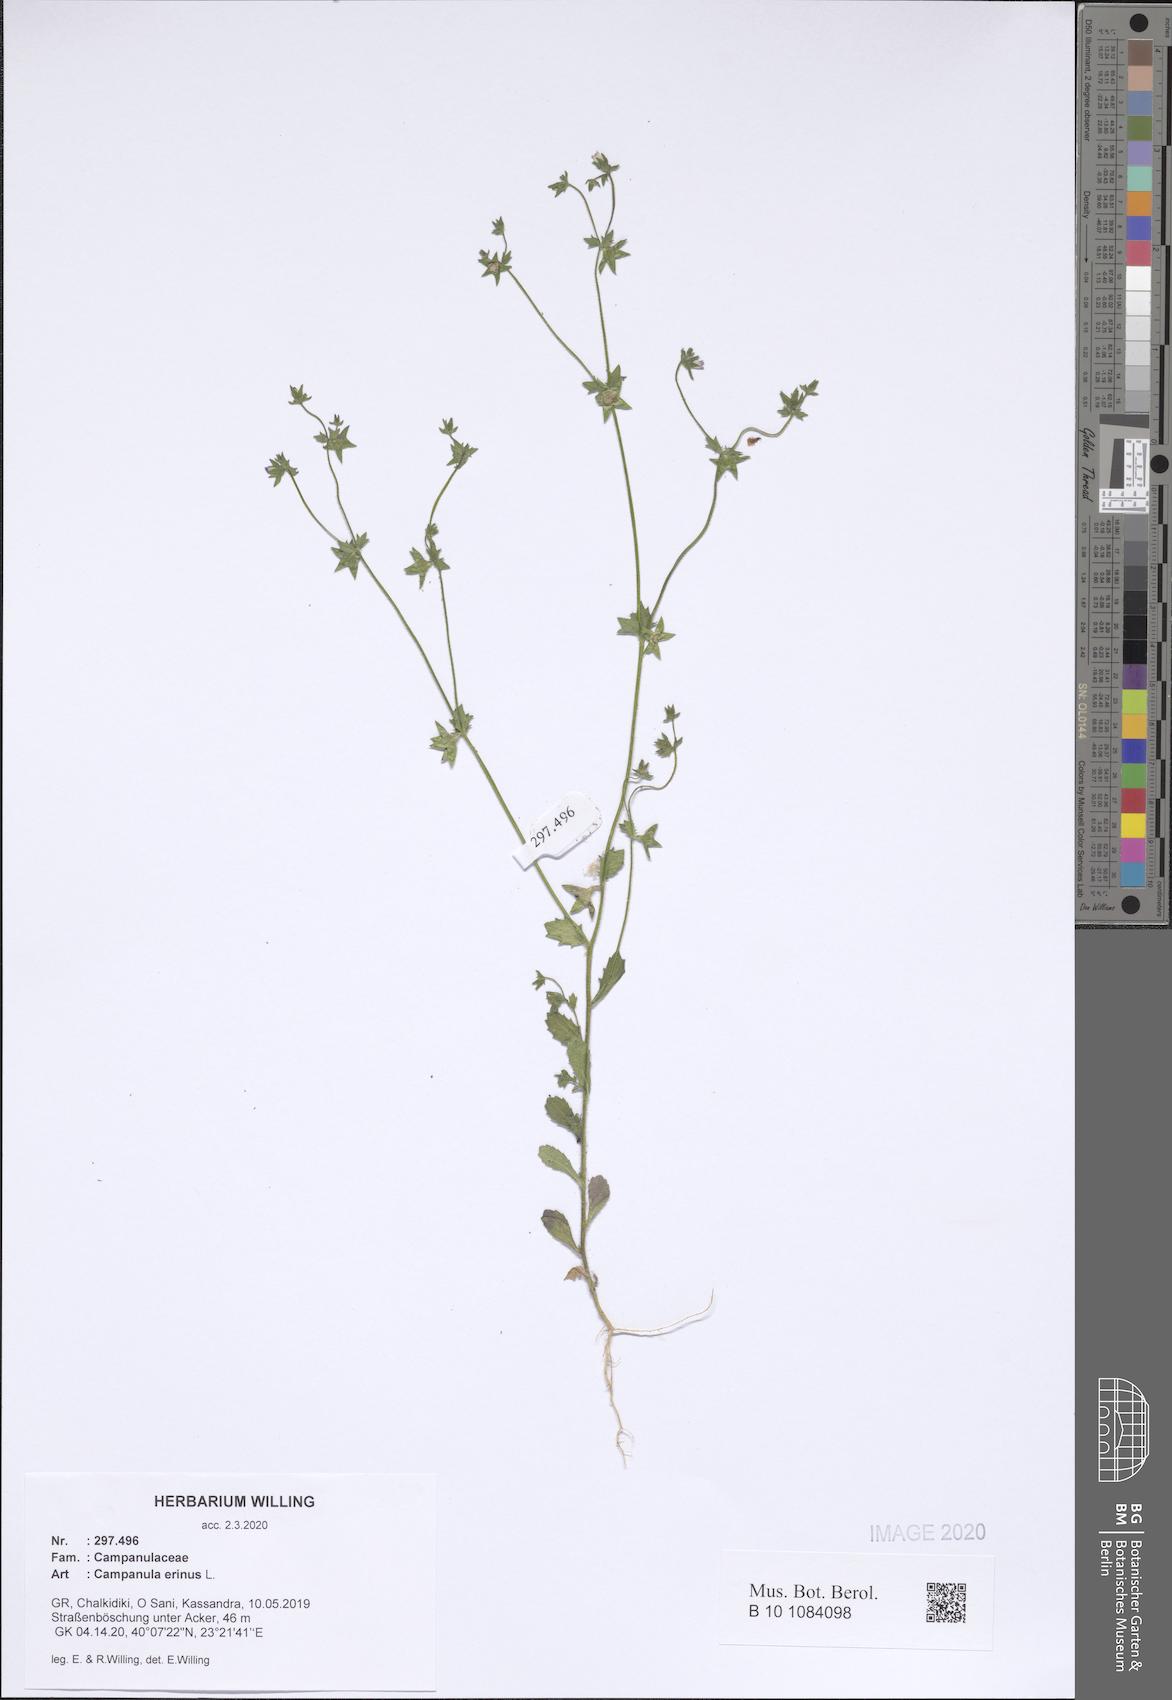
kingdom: Plantae
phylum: Tracheophyta
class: Magnoliopsida
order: Asterales
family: Campanulaceae
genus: Campanula
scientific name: Campanula erinus
